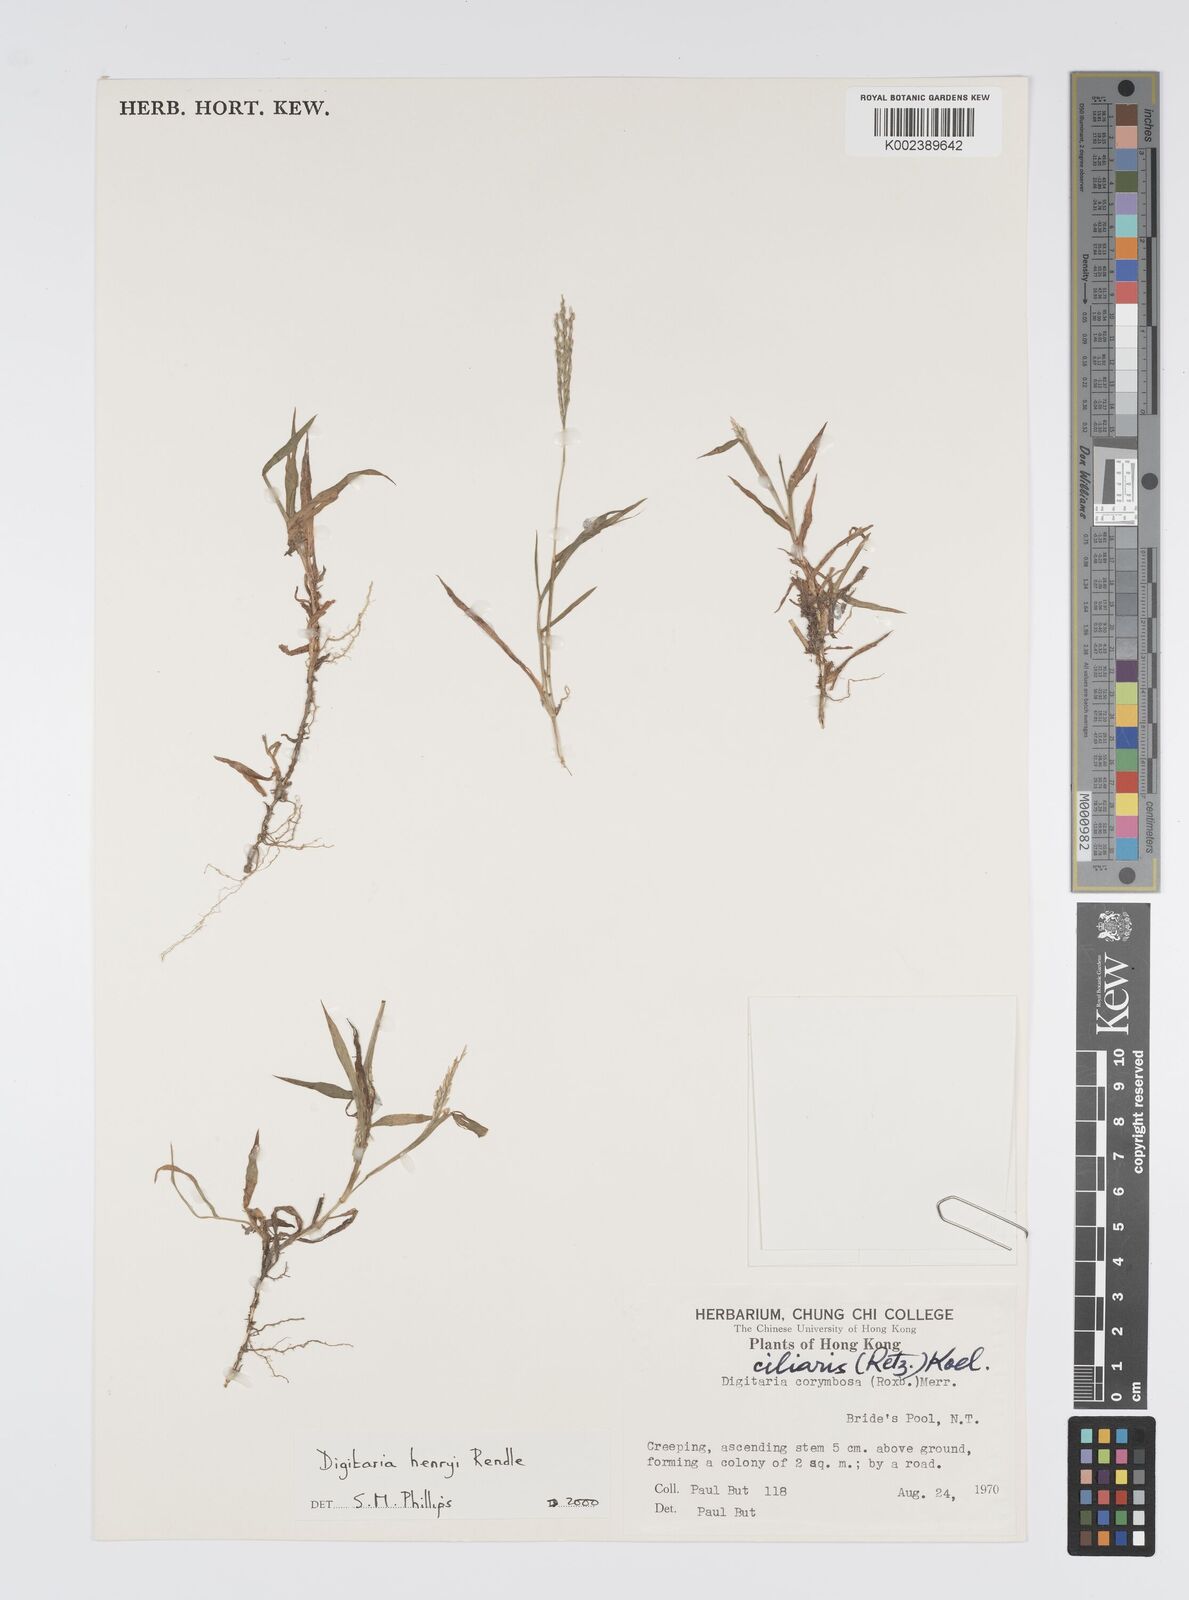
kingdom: Plantae
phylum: Tracheophyta
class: Liliopsida
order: Poales
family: Poaceae
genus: Digitaria
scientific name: Digitaria ciliaris
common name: Tropical finger-grass
